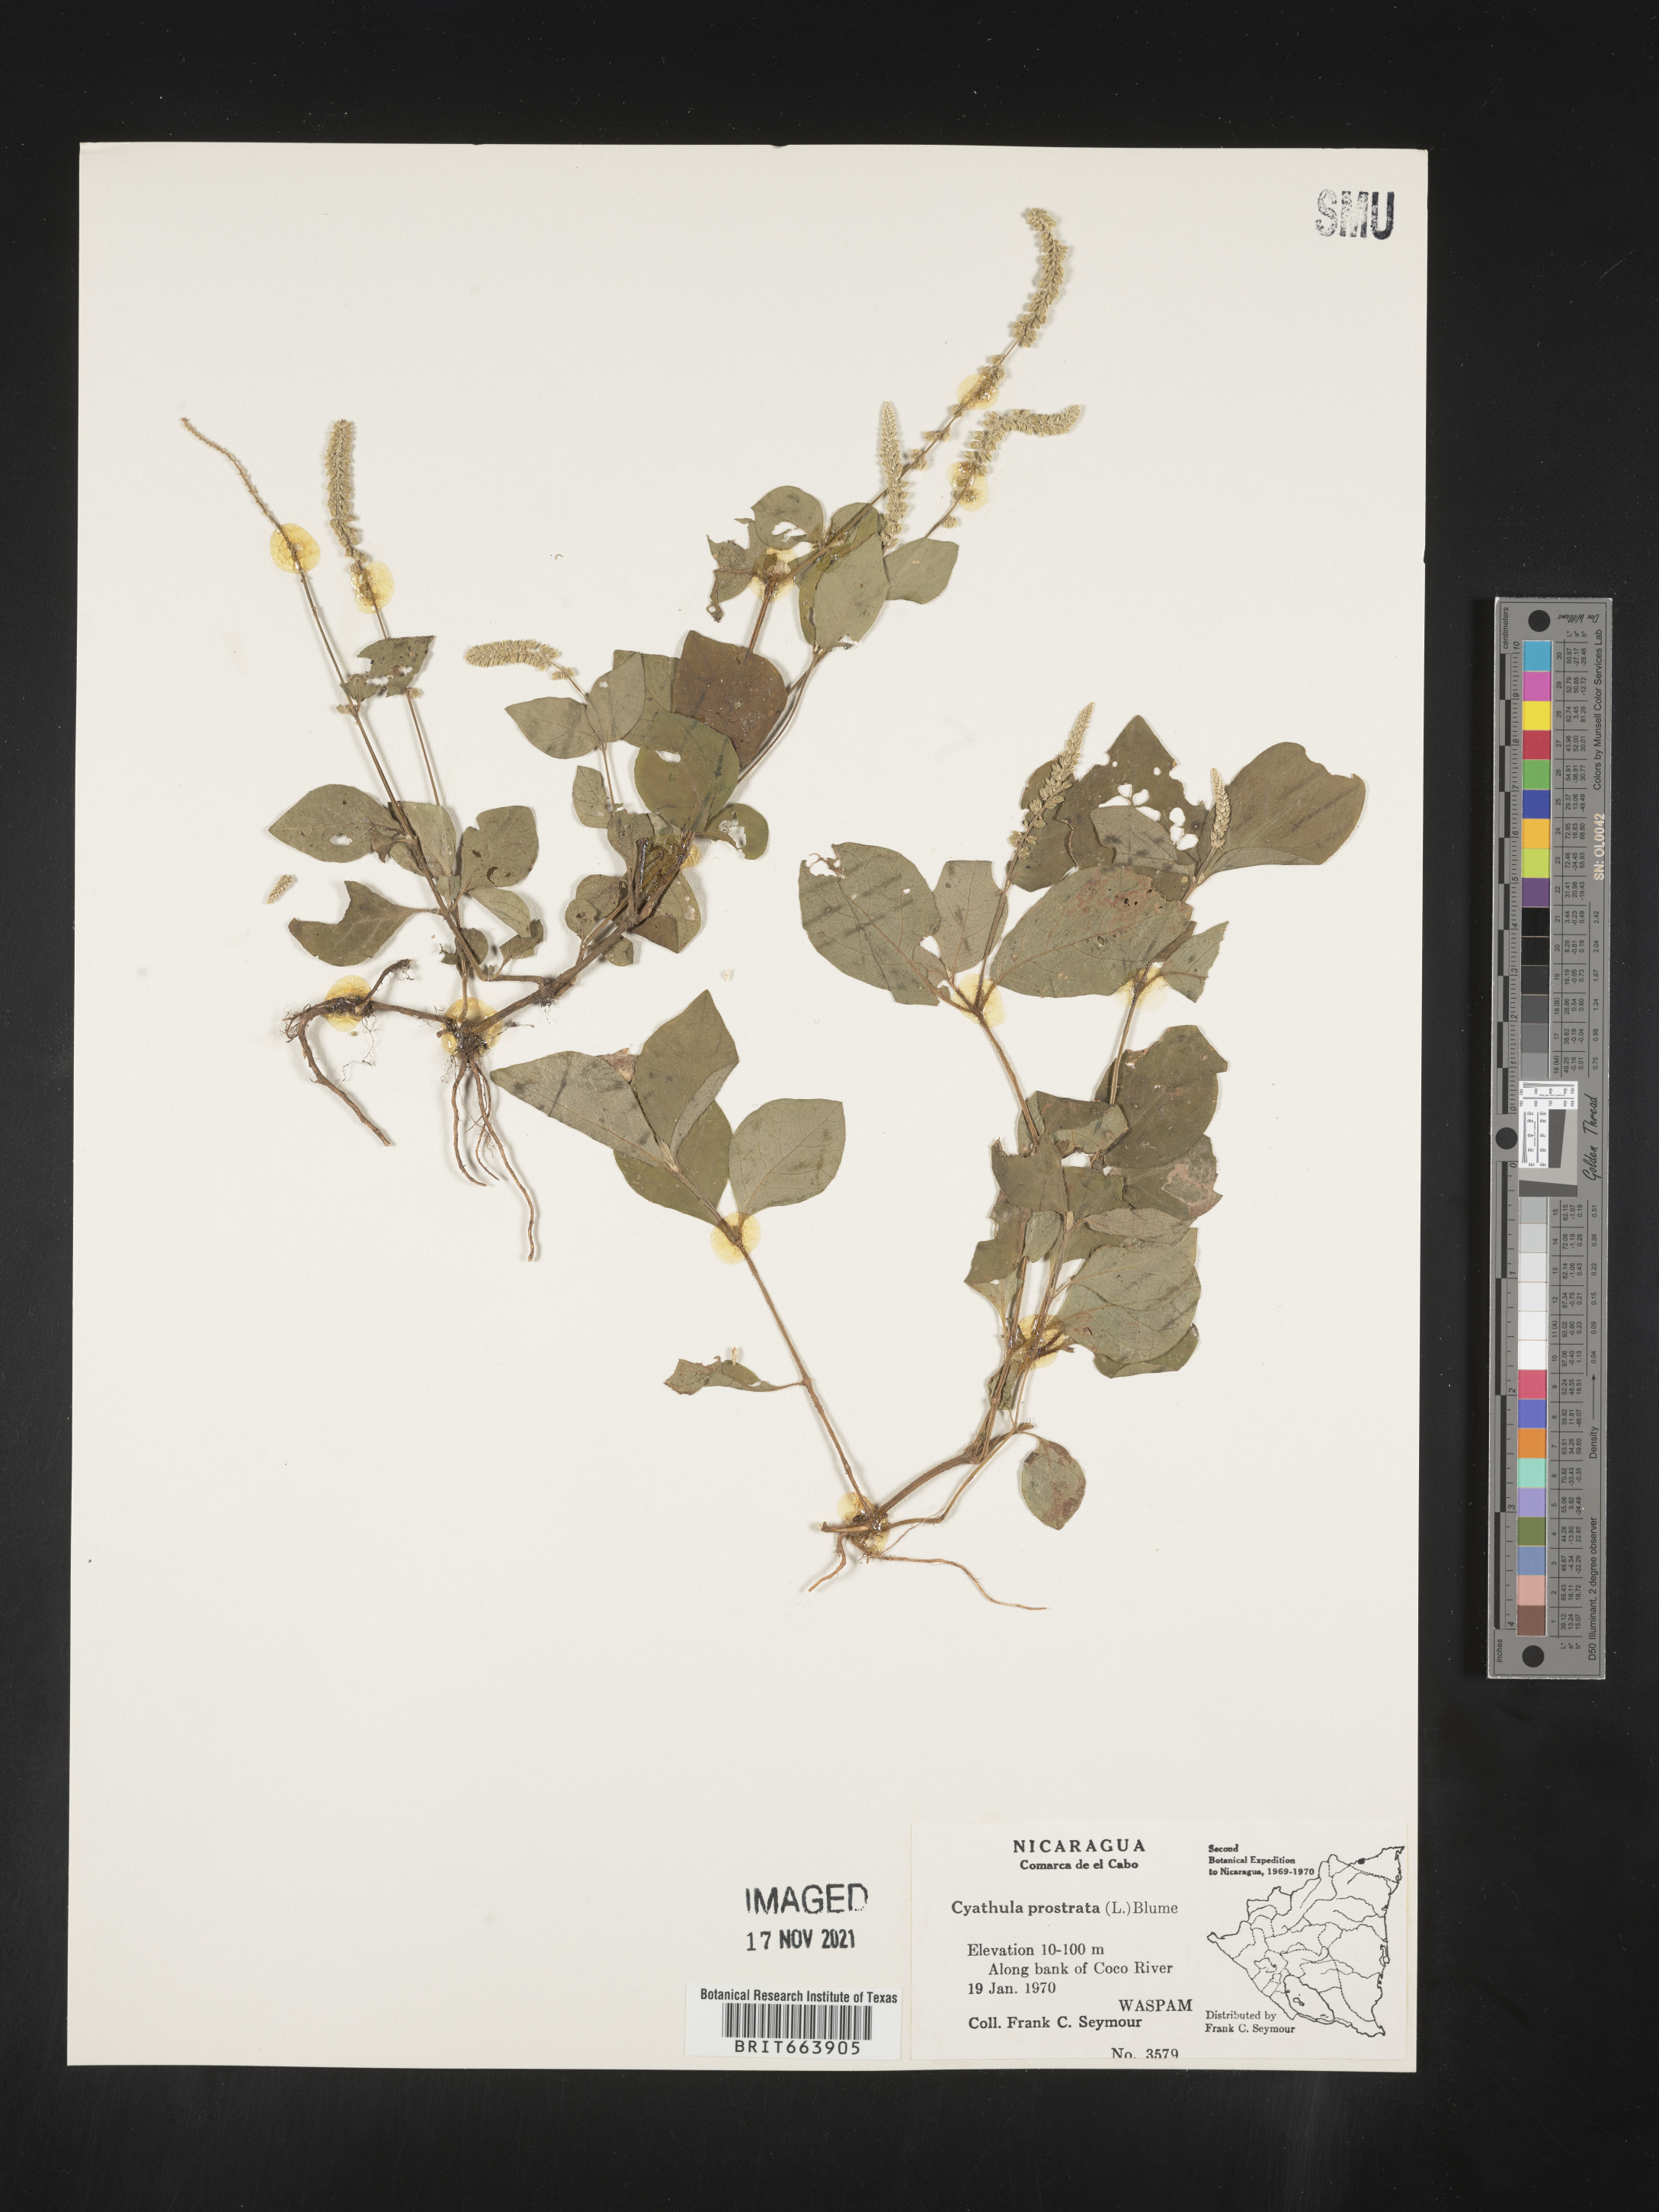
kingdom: Plantae
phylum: Tracheophyta
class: Magnoliopsida
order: Caryophyllales
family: Amaranthaceae
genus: Cyathula
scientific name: Cyathula
